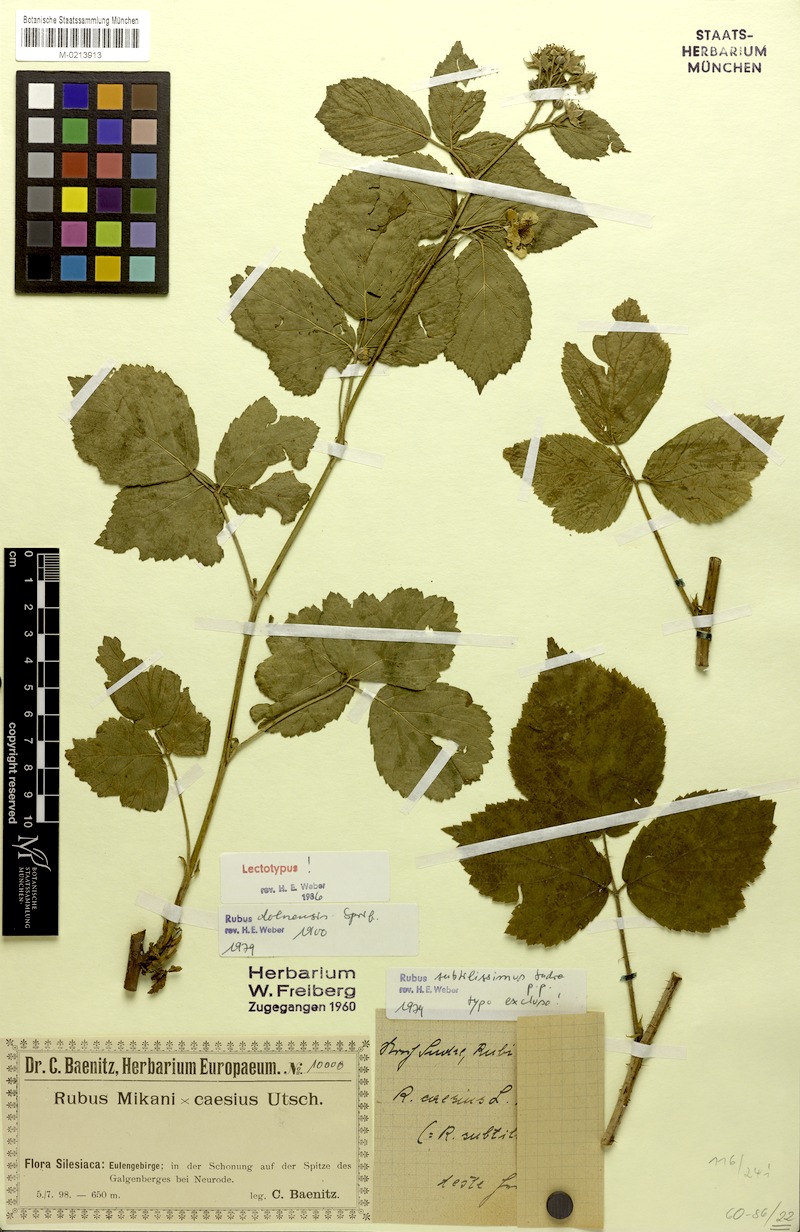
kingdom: Plantae
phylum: Tracheophyta
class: Magnoliopsida
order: Rosales
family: Rosaceae
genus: Rubus
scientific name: Rubus dollnensis
